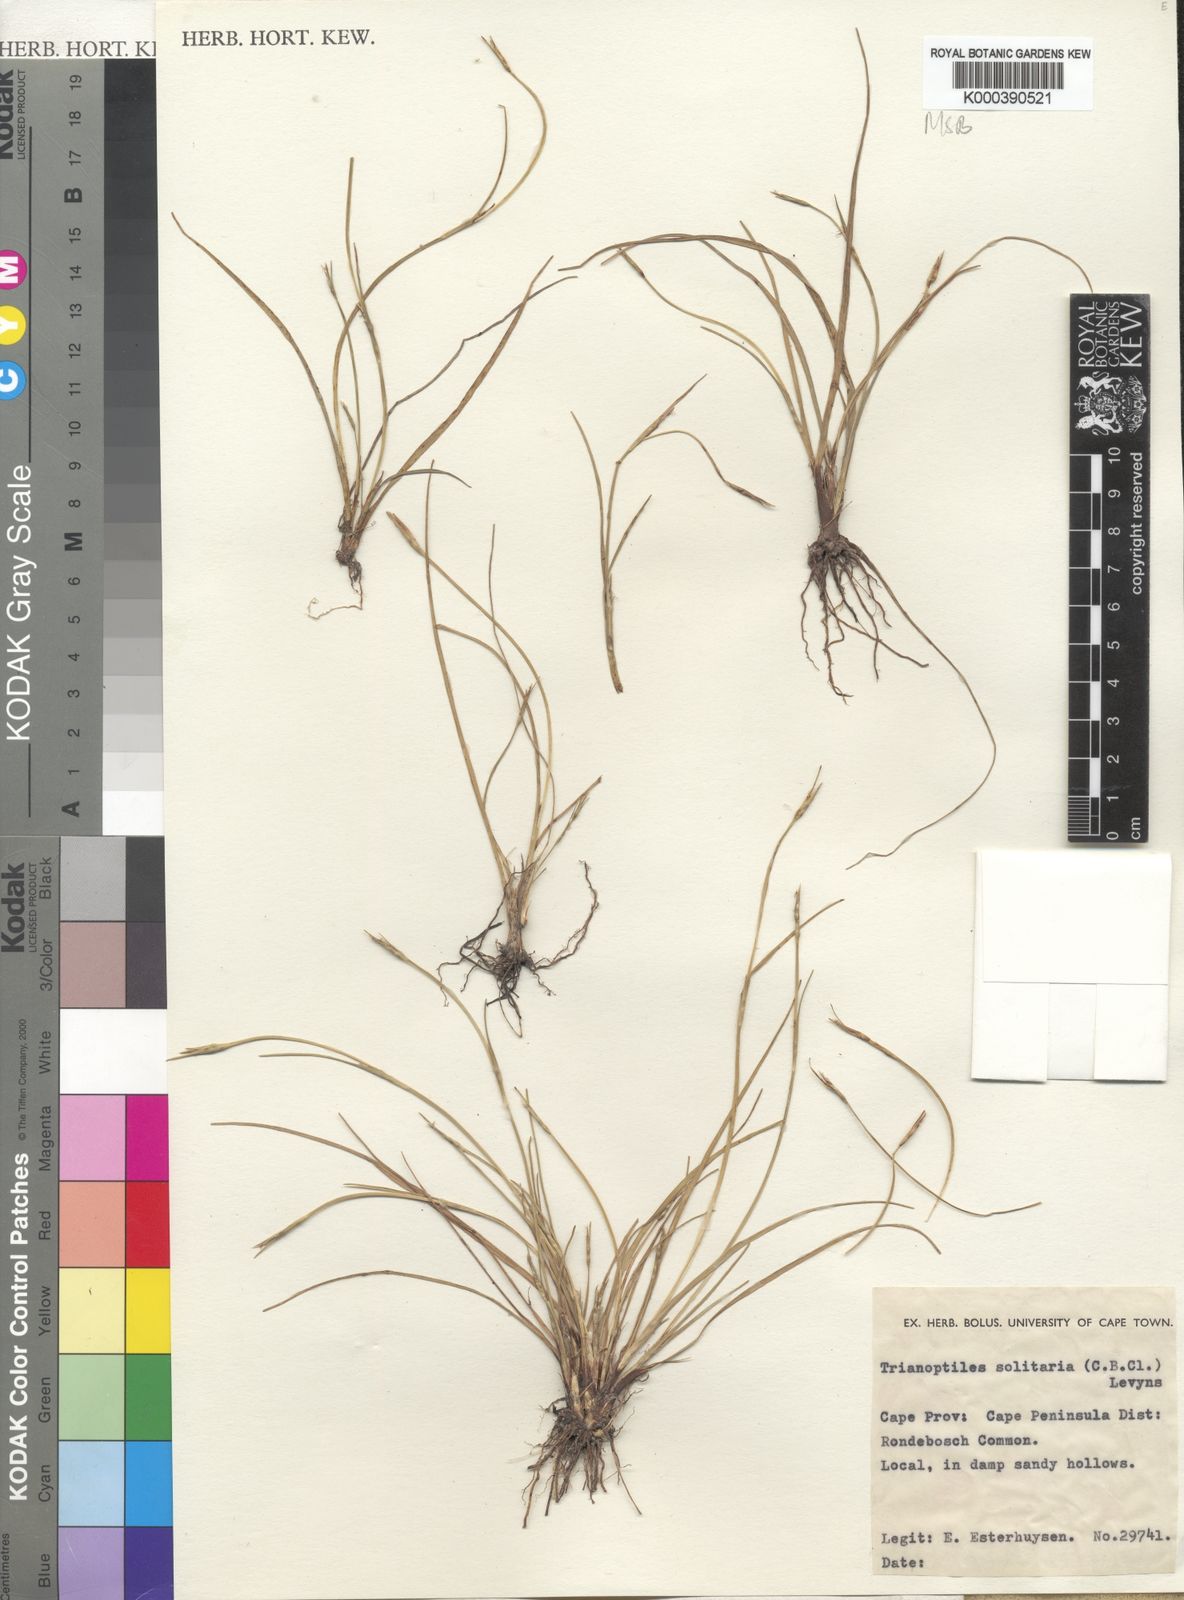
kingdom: Plantae
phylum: Tracheophyta
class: Liliopsida
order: Poales
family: Cyperaceae
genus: Trianoptiles
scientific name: Trianoptiles solitaria
